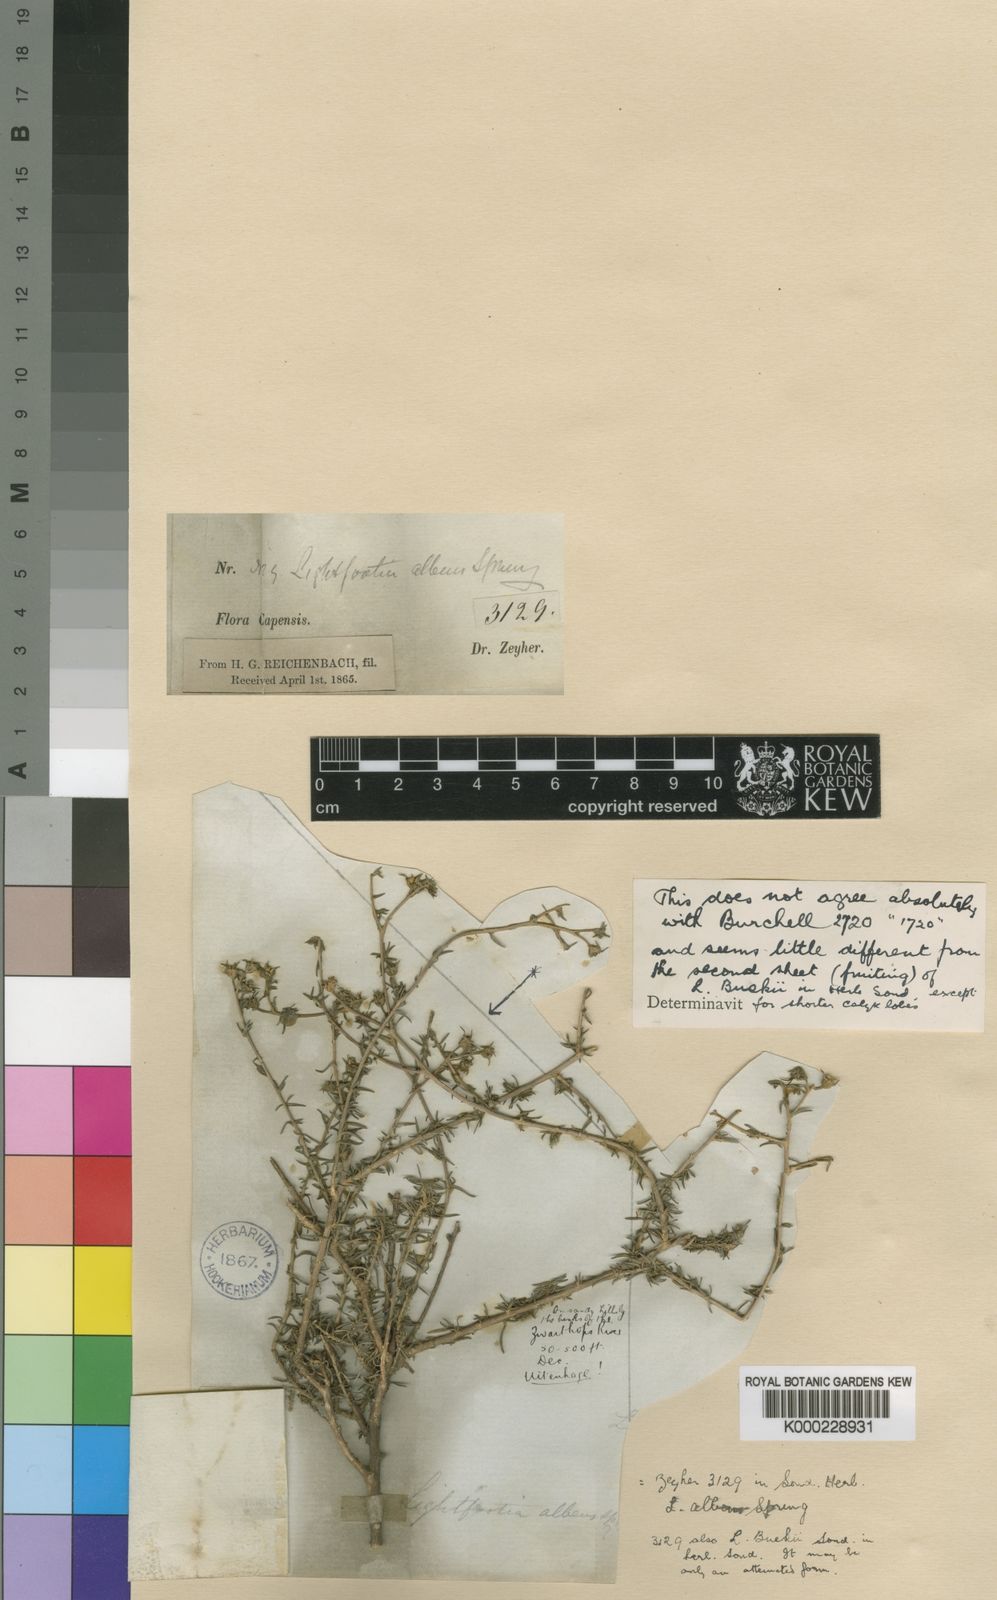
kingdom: Plantae
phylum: Tracheophyta
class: Magnoliopsida
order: Asterales
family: Campanulaceae
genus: Wahlenbergia
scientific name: Wahlenbergia albens
